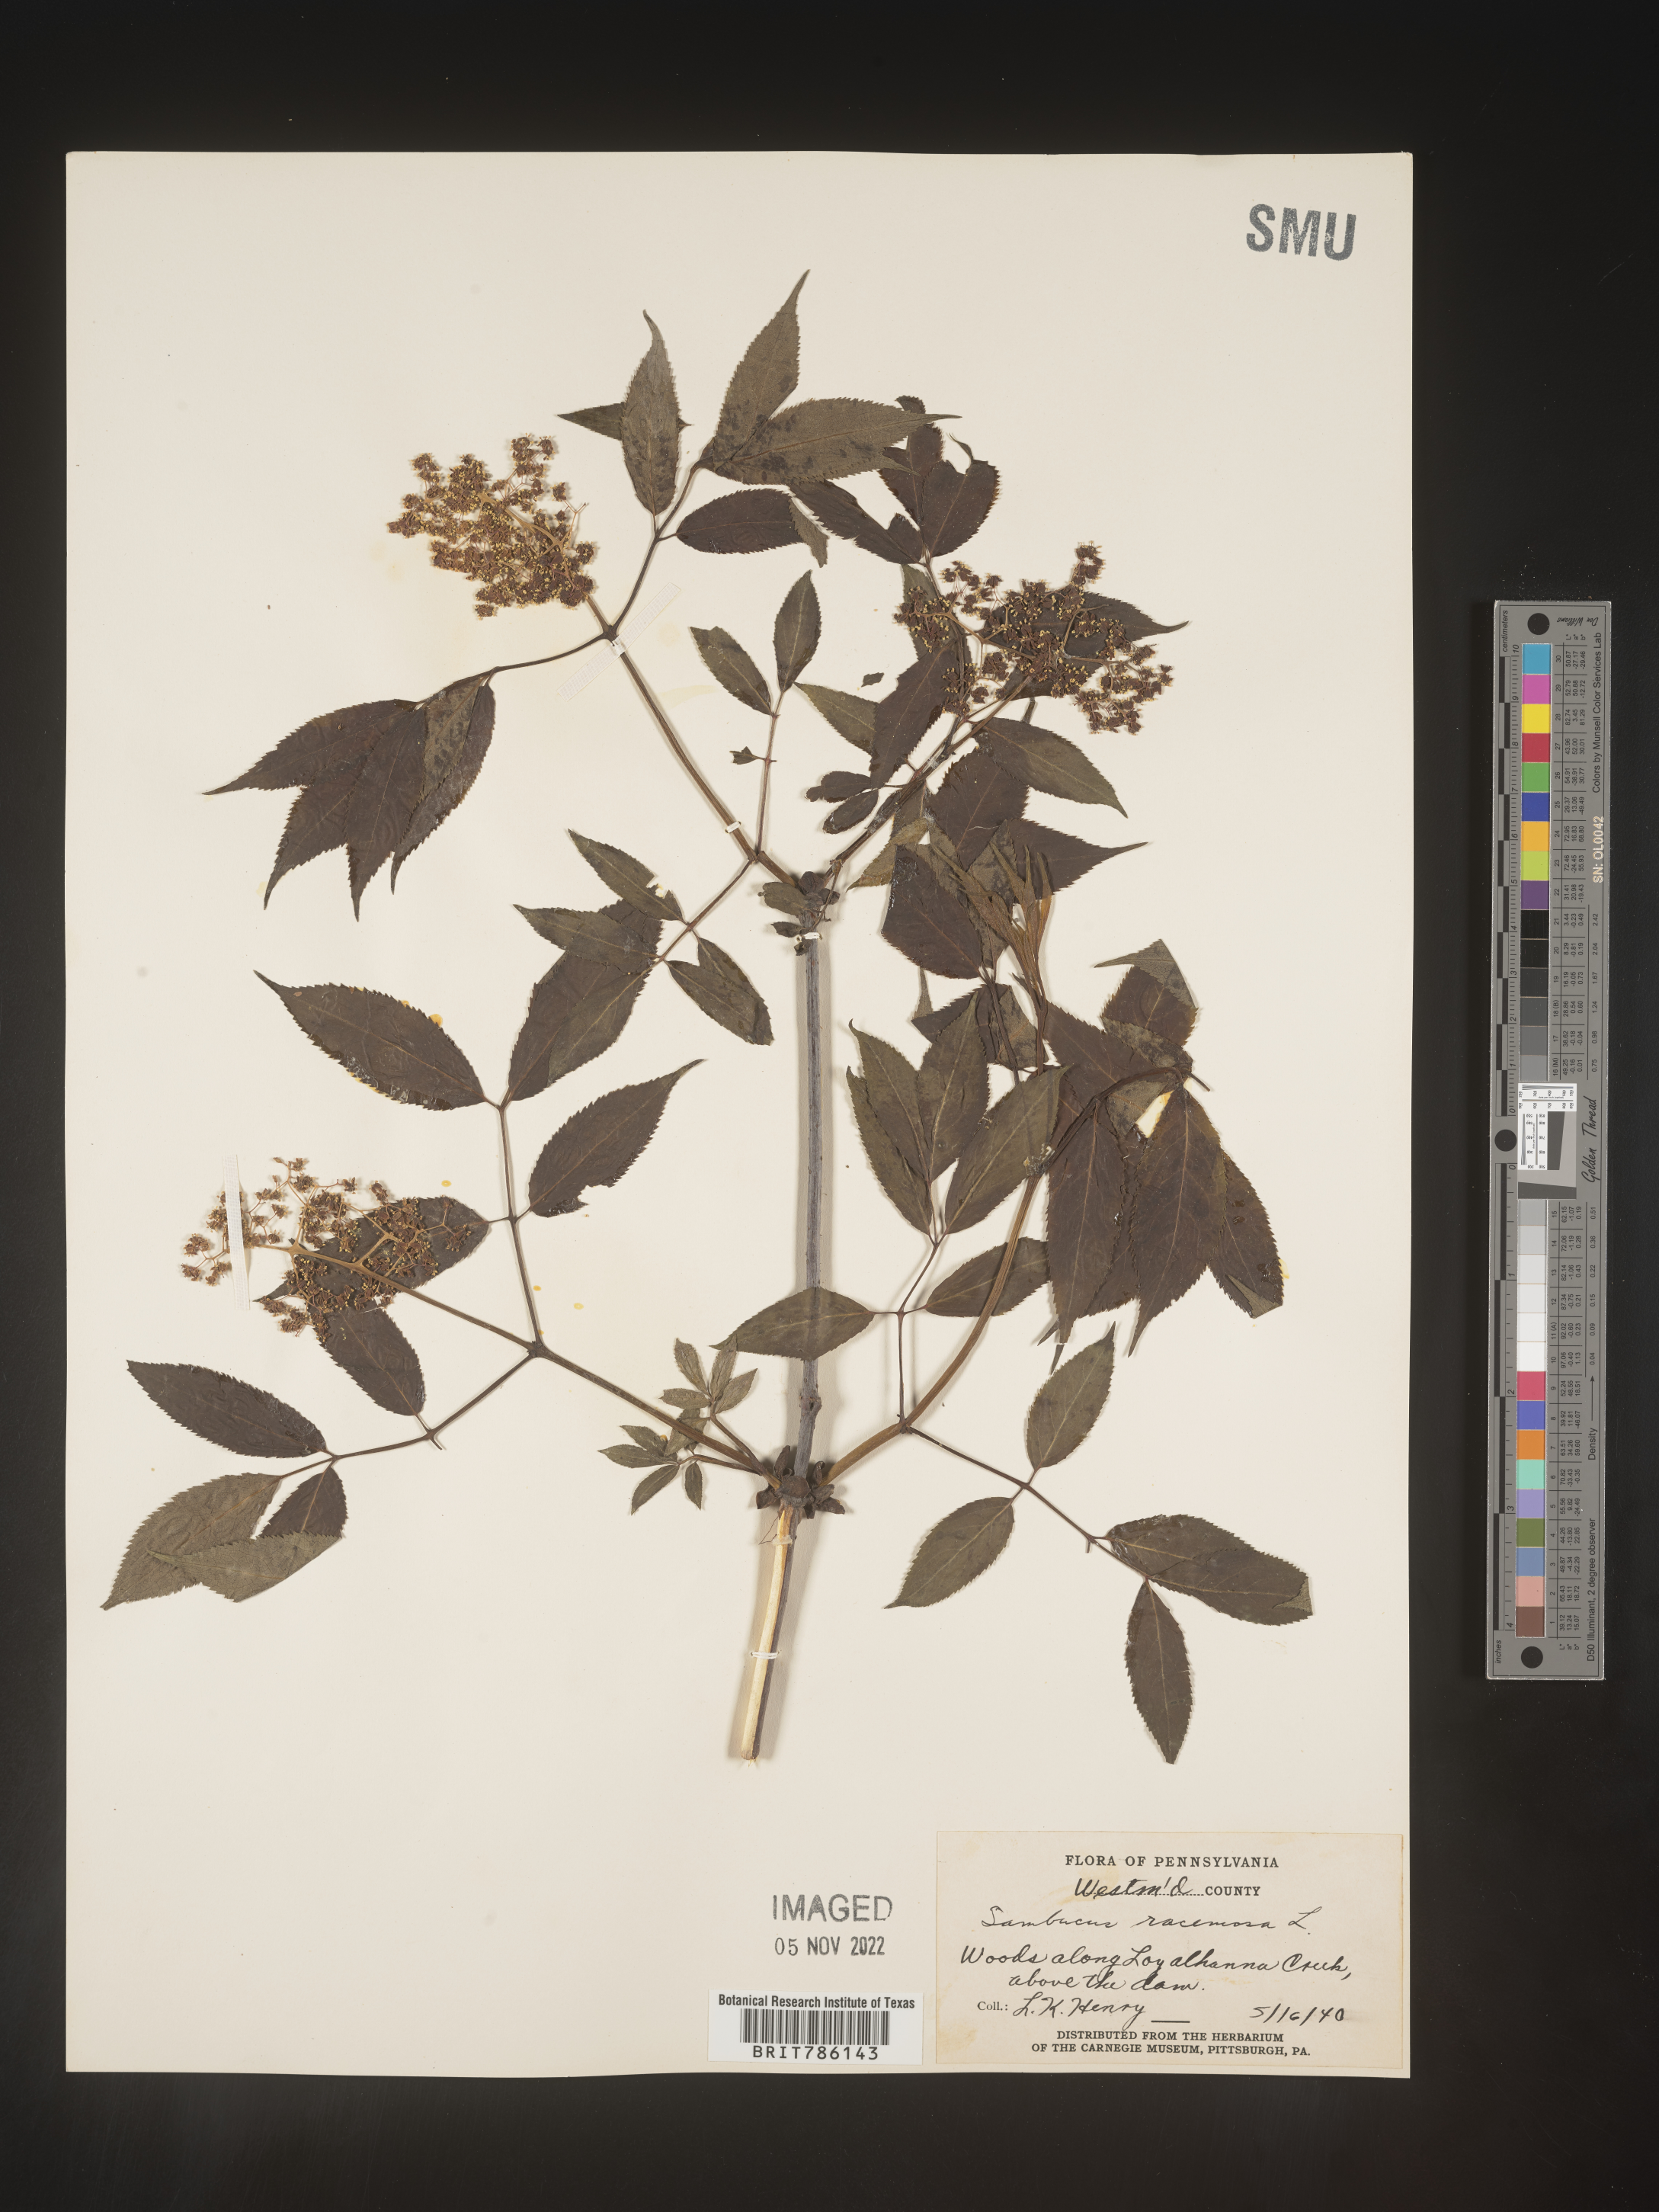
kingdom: Plantae
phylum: Tracheophyta
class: Magnoliopsida
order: Dipsacales
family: Viburnaceae
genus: Sambucus
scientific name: Sambucus
